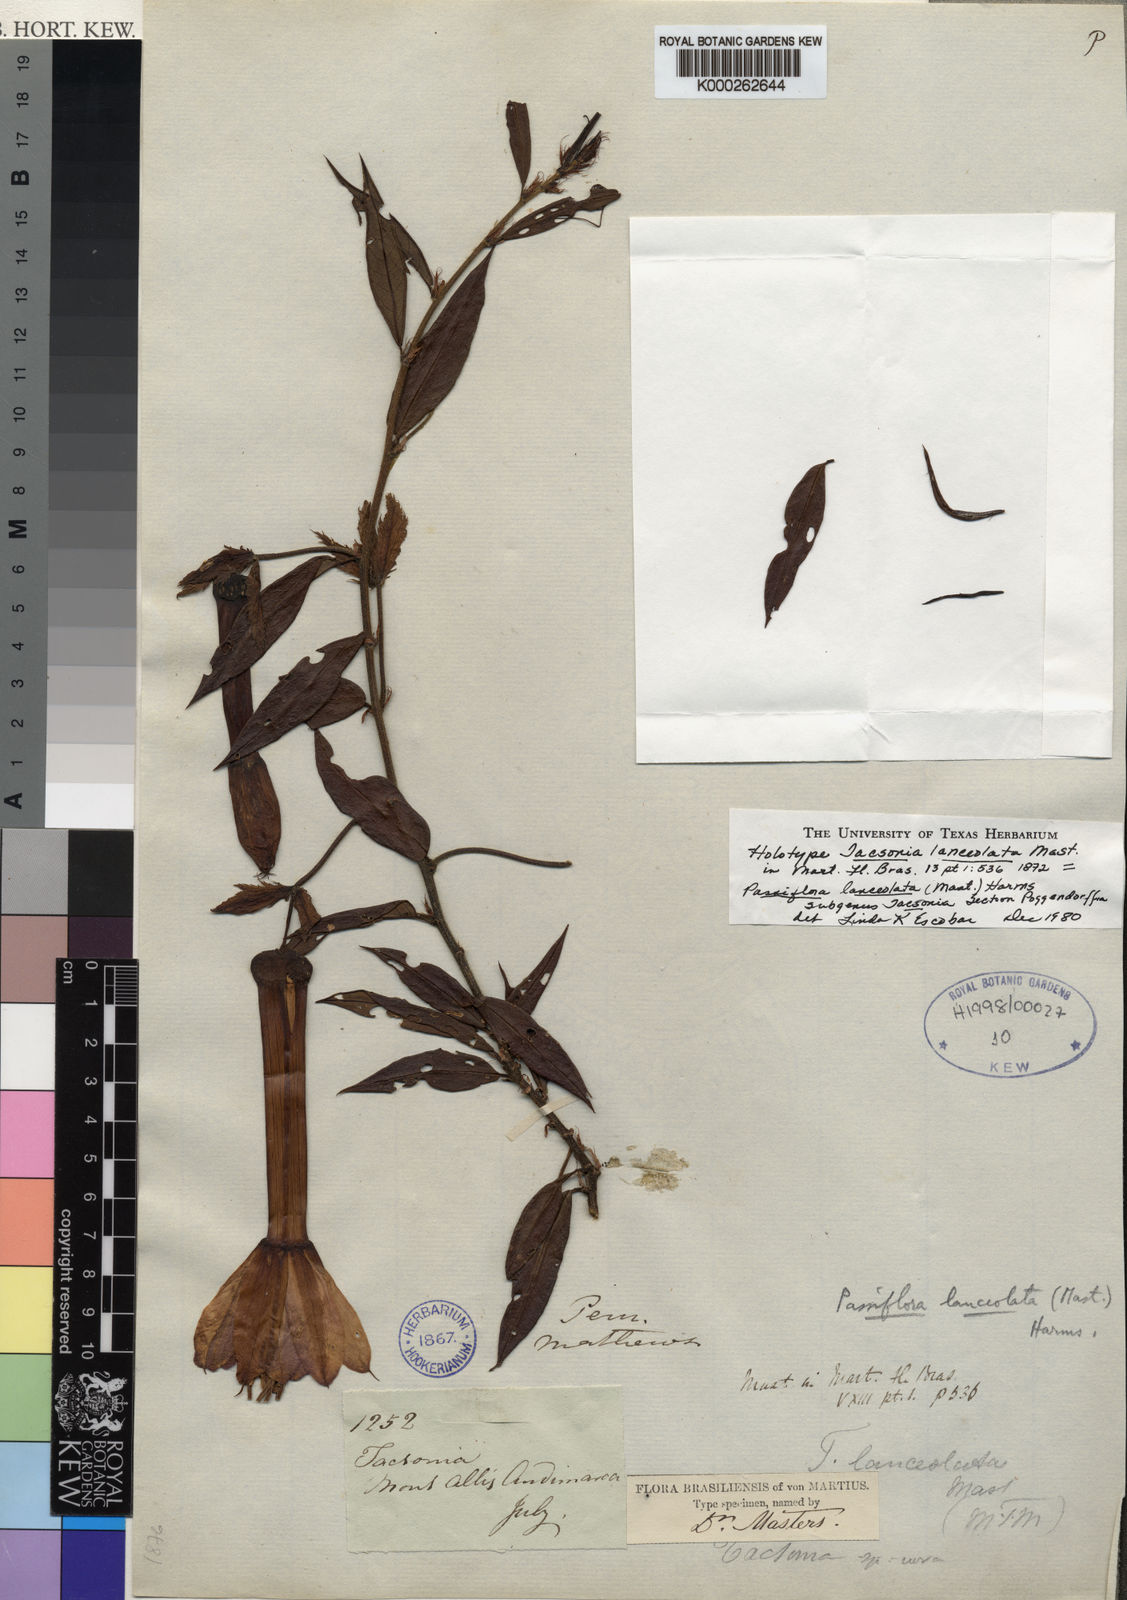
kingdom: Plantae
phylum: Tracheophyta
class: Magnoliopsida
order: Malpighiales
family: Passifloraceae
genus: Passiflora
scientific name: Passiflora lanceolata
